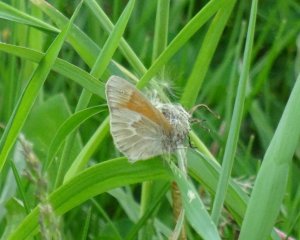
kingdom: Animalia
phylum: Arthropoda
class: Insecta
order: Lepidoptera
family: Nymphalidae
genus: Coenonympha
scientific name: Coenonympha tullia
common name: Large Heath
